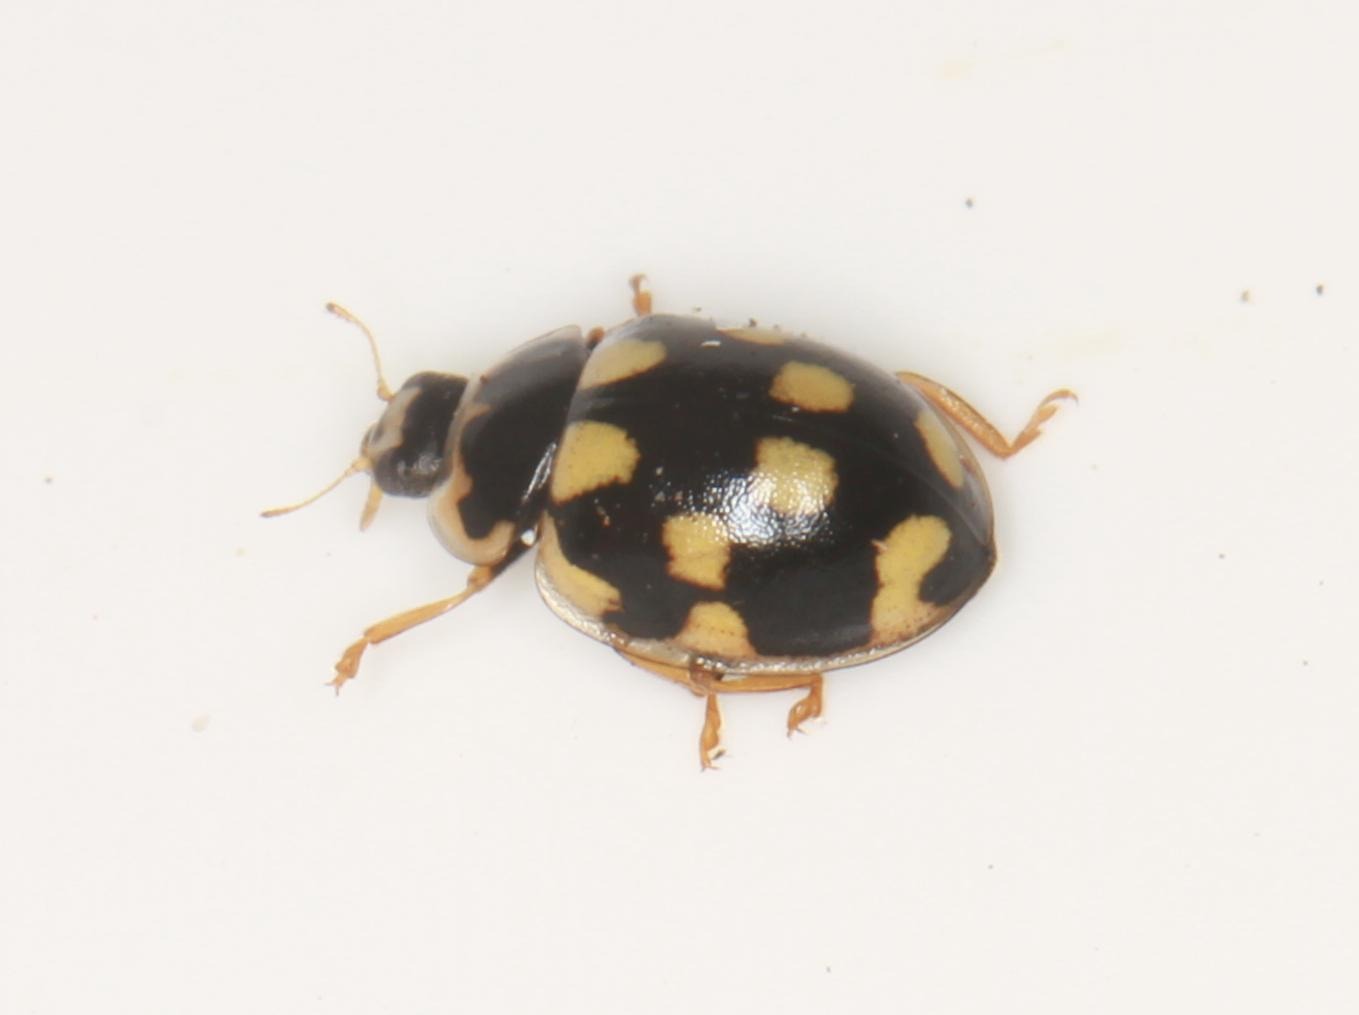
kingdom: Animalia
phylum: Arthropoda
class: Insecta
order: Coleoptera
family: Coccinellidae
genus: Propylaea
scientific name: Propylaea quatuordecimpunctata
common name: Skakbræt
